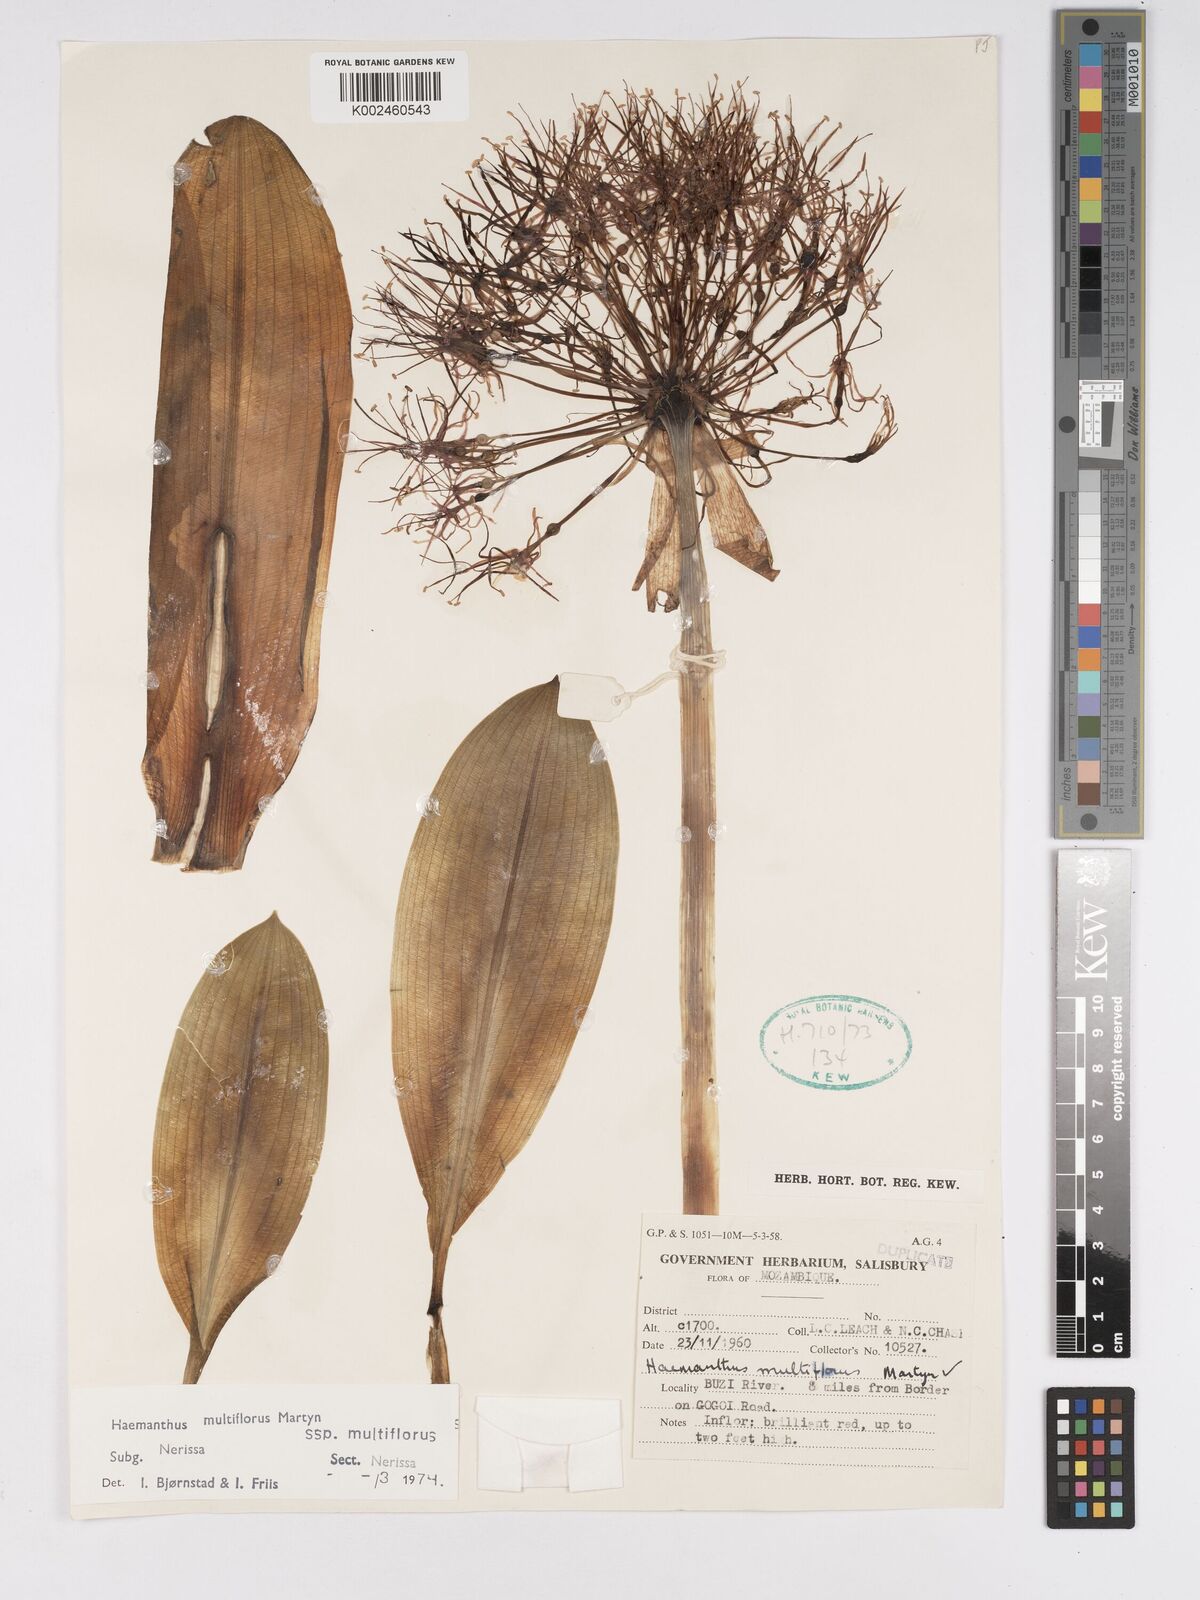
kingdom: Plantae
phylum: Tracheophyta
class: Liliopsida
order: Asparagales
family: Amaryllidaceae
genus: Scadoxus
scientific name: Scadoxus multiflorus
